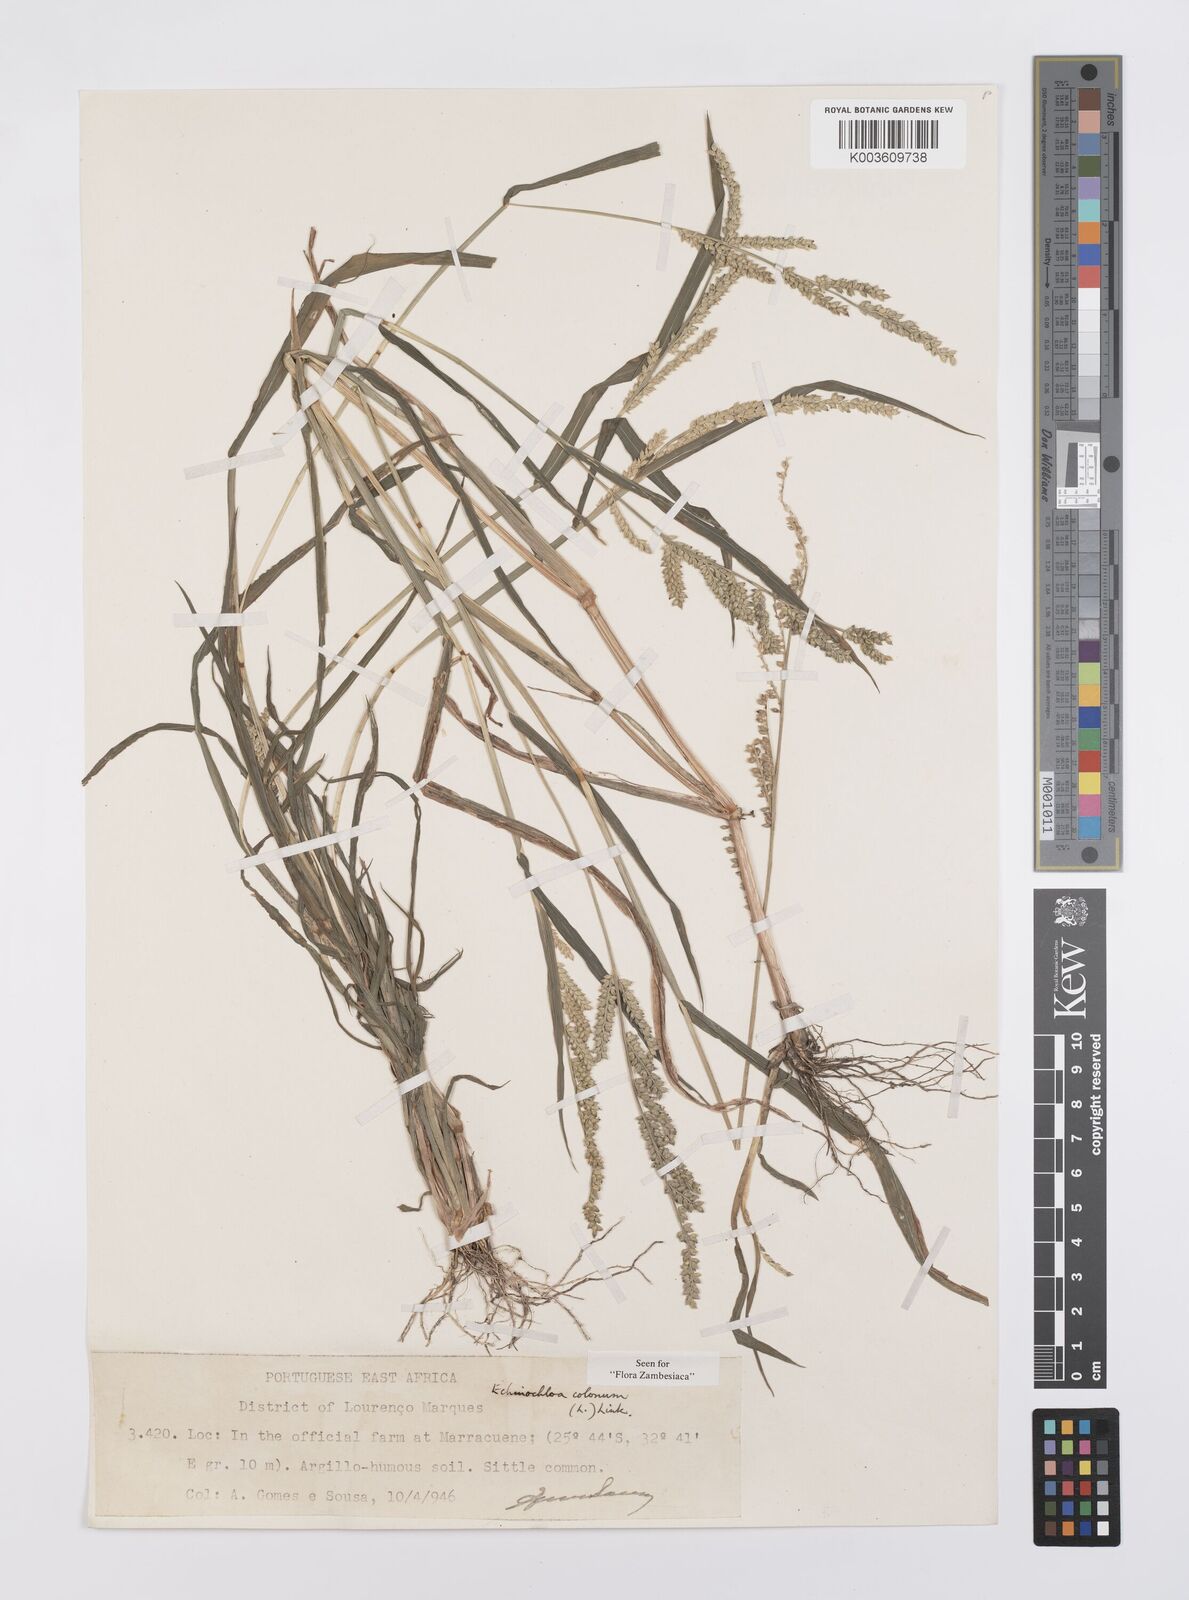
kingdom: Plantae
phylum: Tracheophyta
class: Liliopsida
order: Poales
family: Poaceae
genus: Echinochloa
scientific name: Echinochloa colonum
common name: Jungle rice
